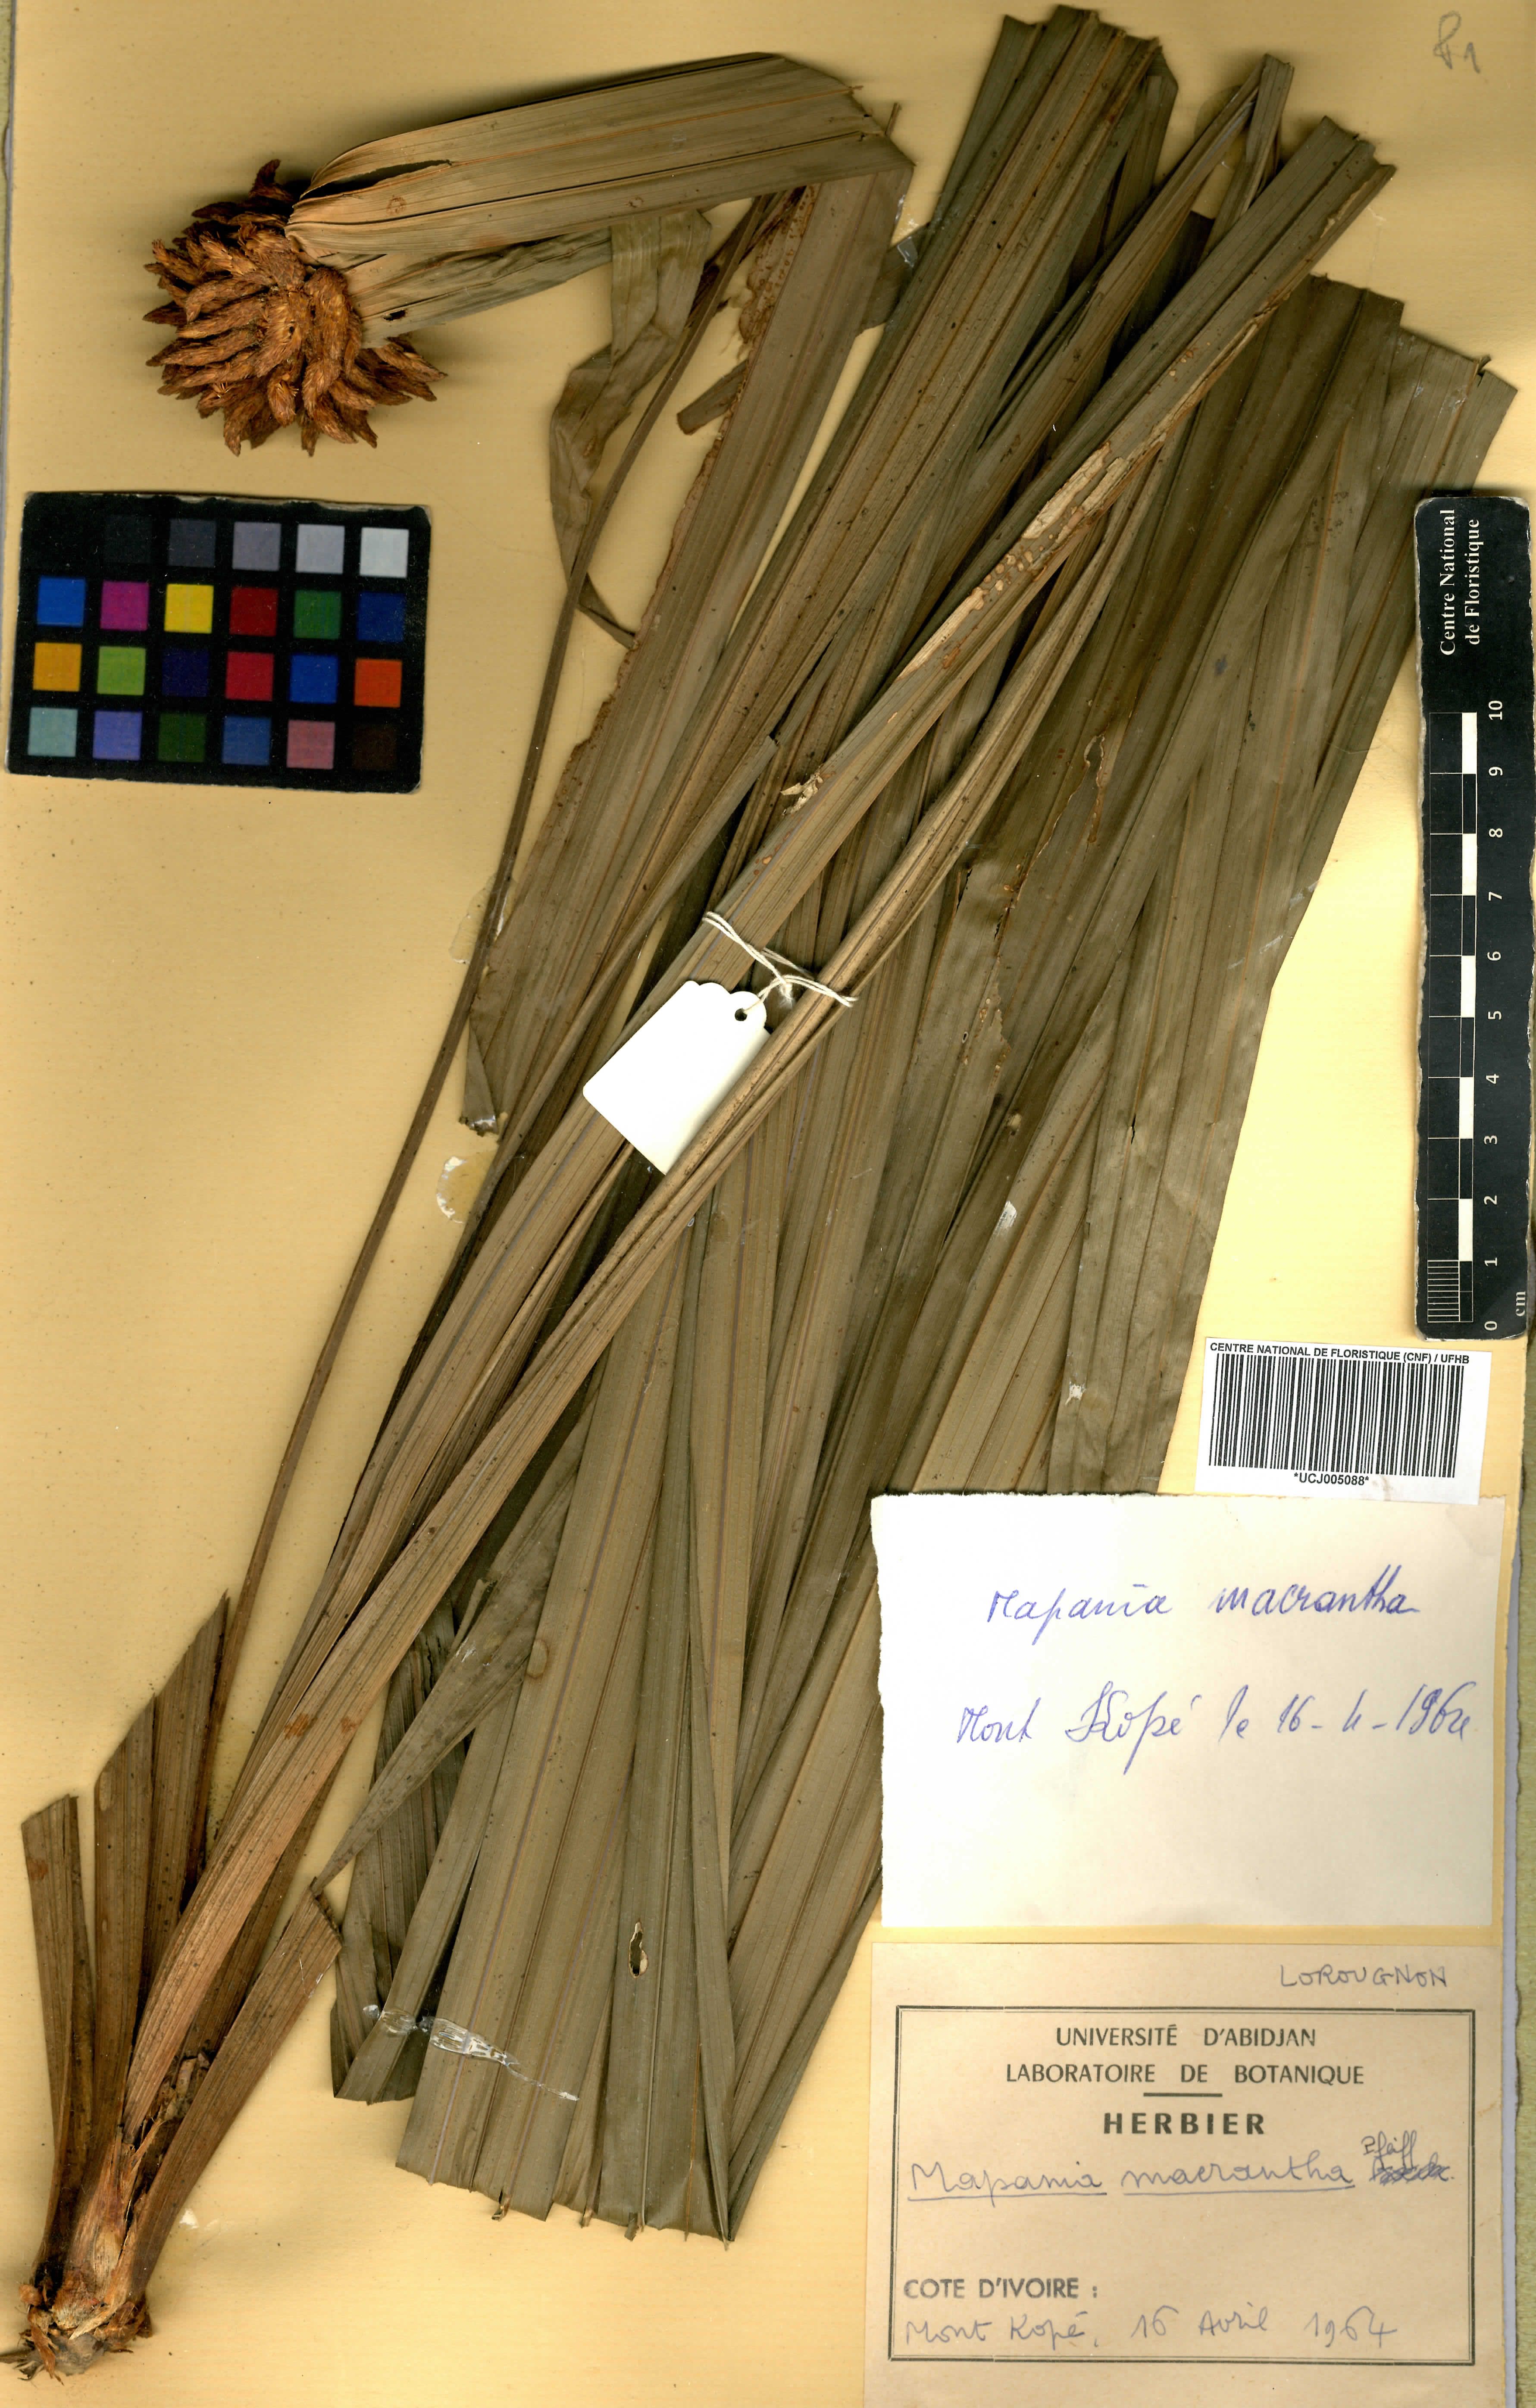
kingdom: Plantae
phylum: Tracheophyta
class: Liliopsida
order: Poales
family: Cyperaceae
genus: Mapania
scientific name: Mapania macrantha
